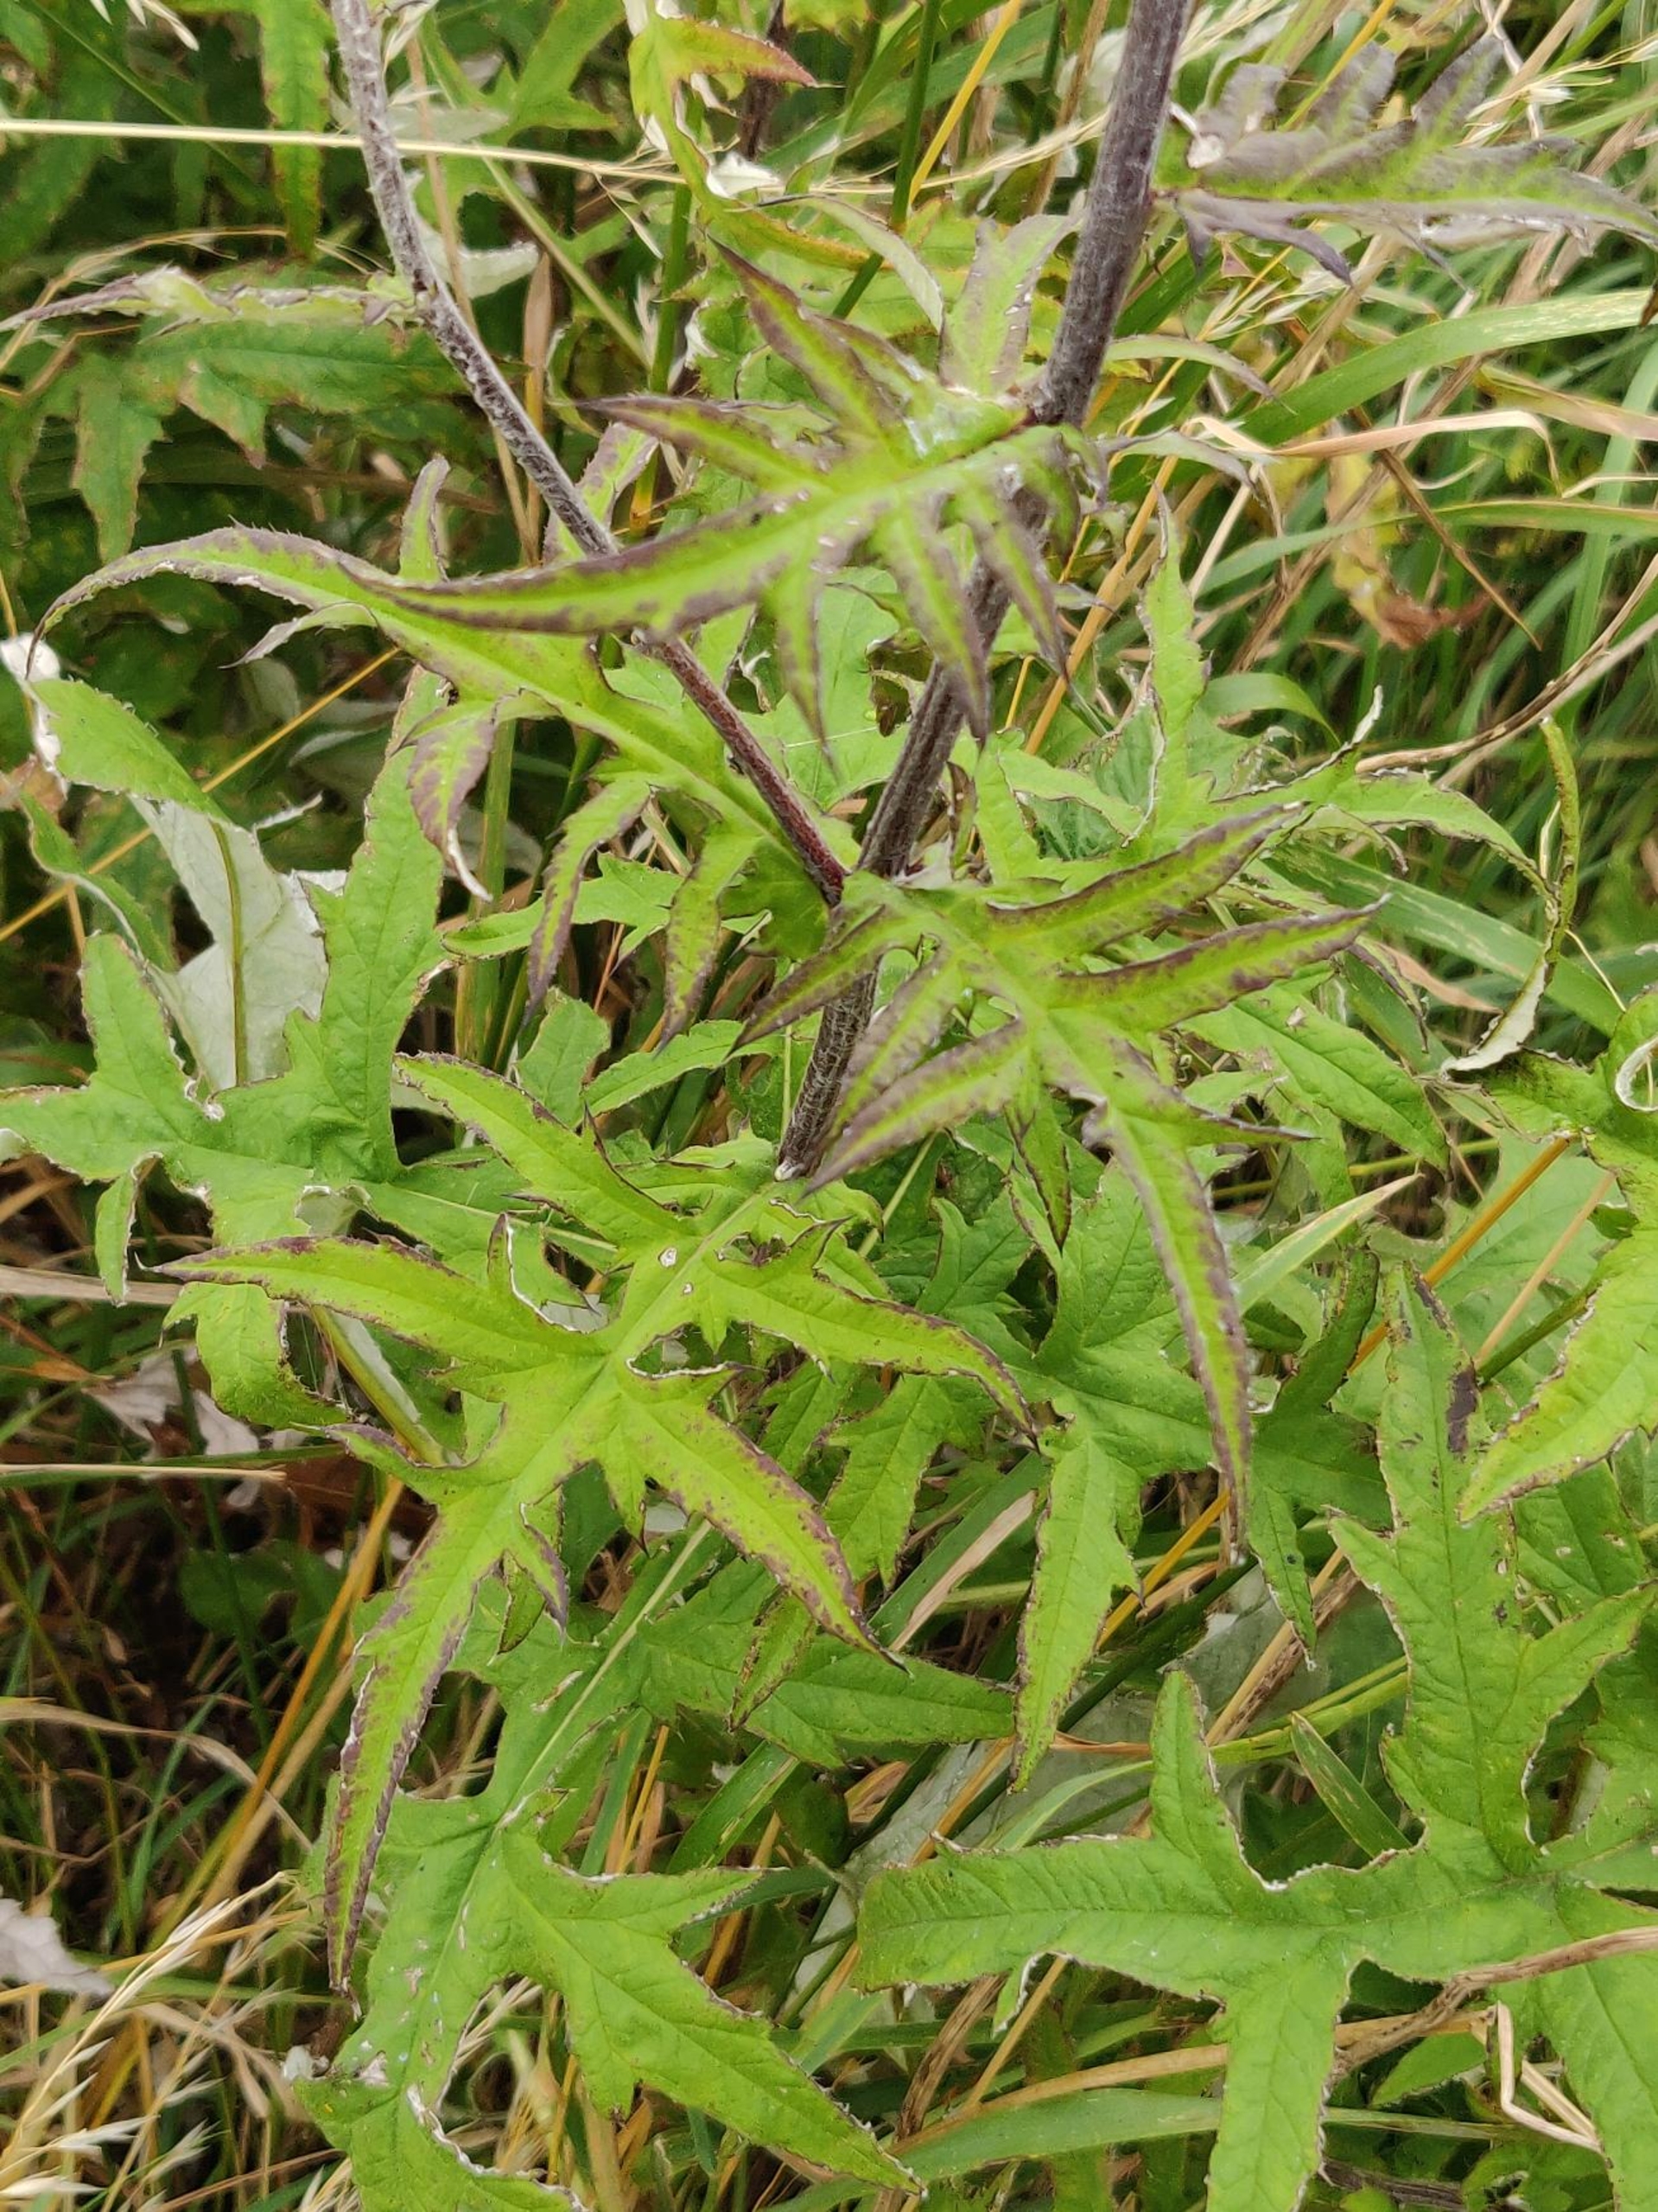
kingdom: Plantae
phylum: Tracheophyta
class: Magnoliopsida
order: Asterales
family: Asteraceae
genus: Echinops
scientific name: Echinops bannaticus
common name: Blå tidselkugle
